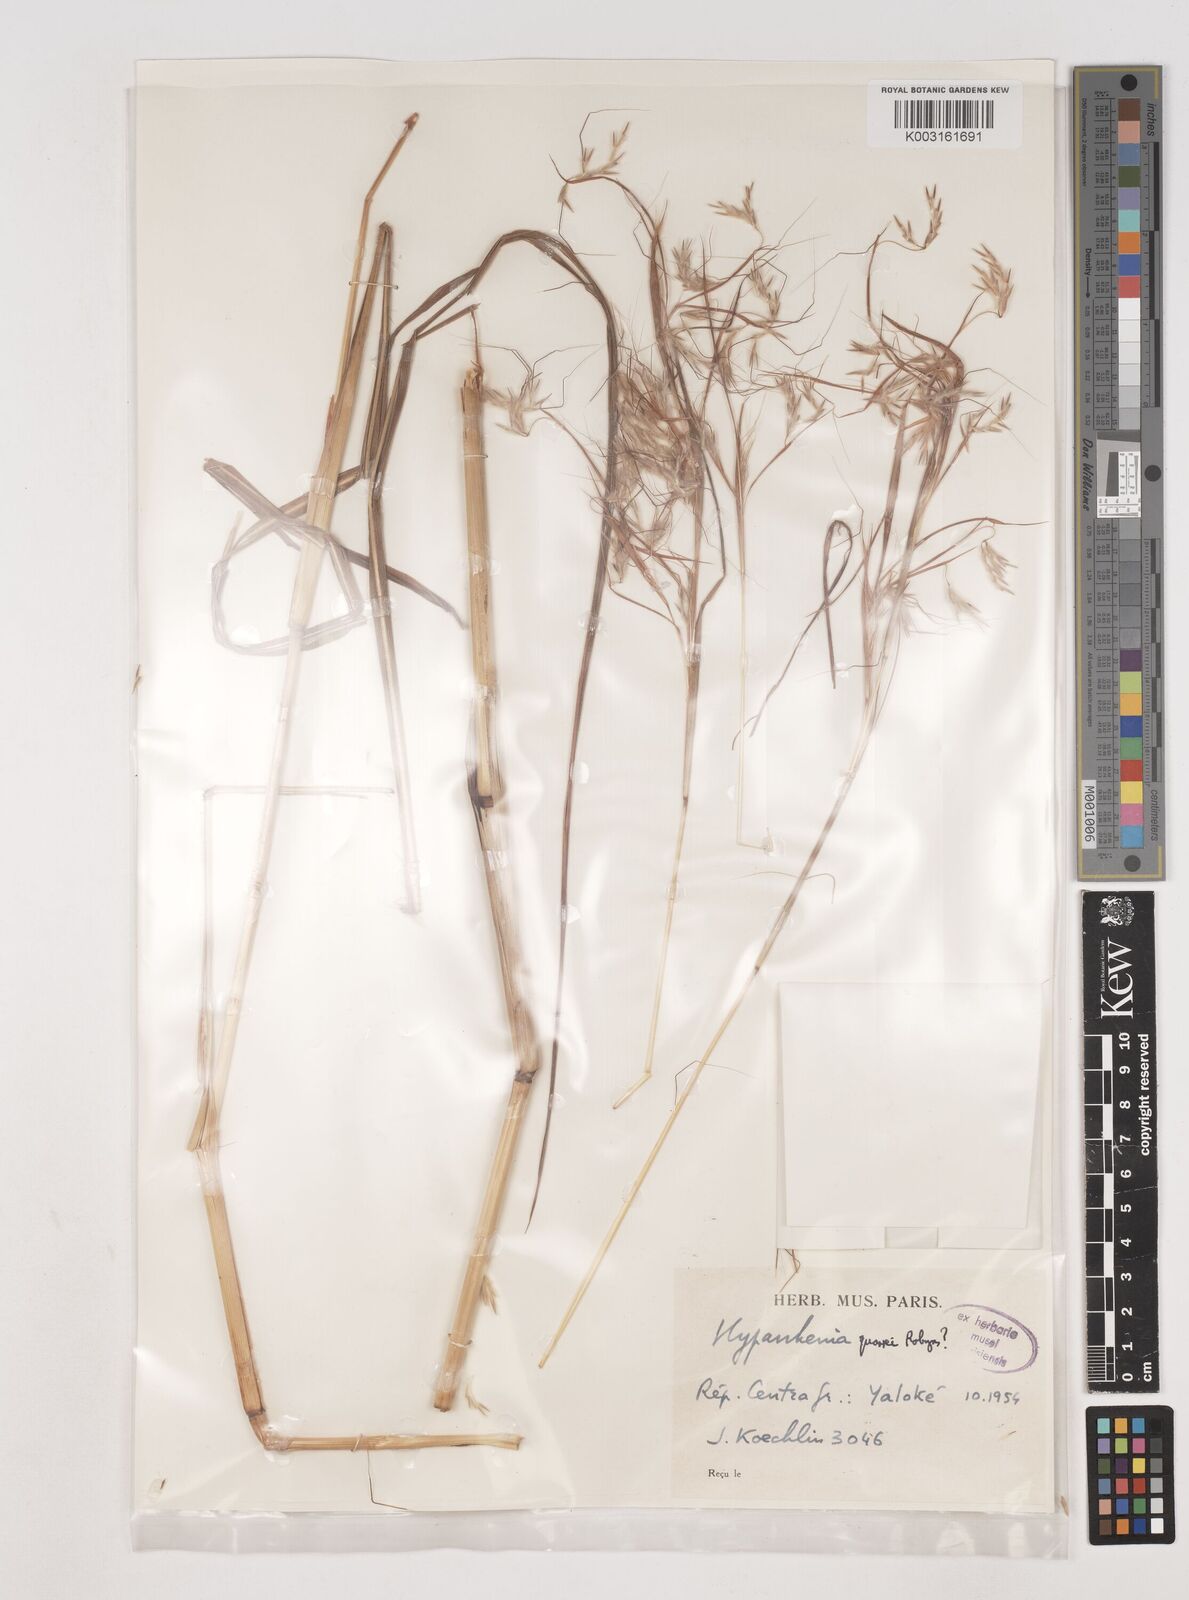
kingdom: Plantae
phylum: Tracheophyta
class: Liliopsida
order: Poales
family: Poaceae
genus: Hyparrhenia
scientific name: Hyparrhenia quarrei
